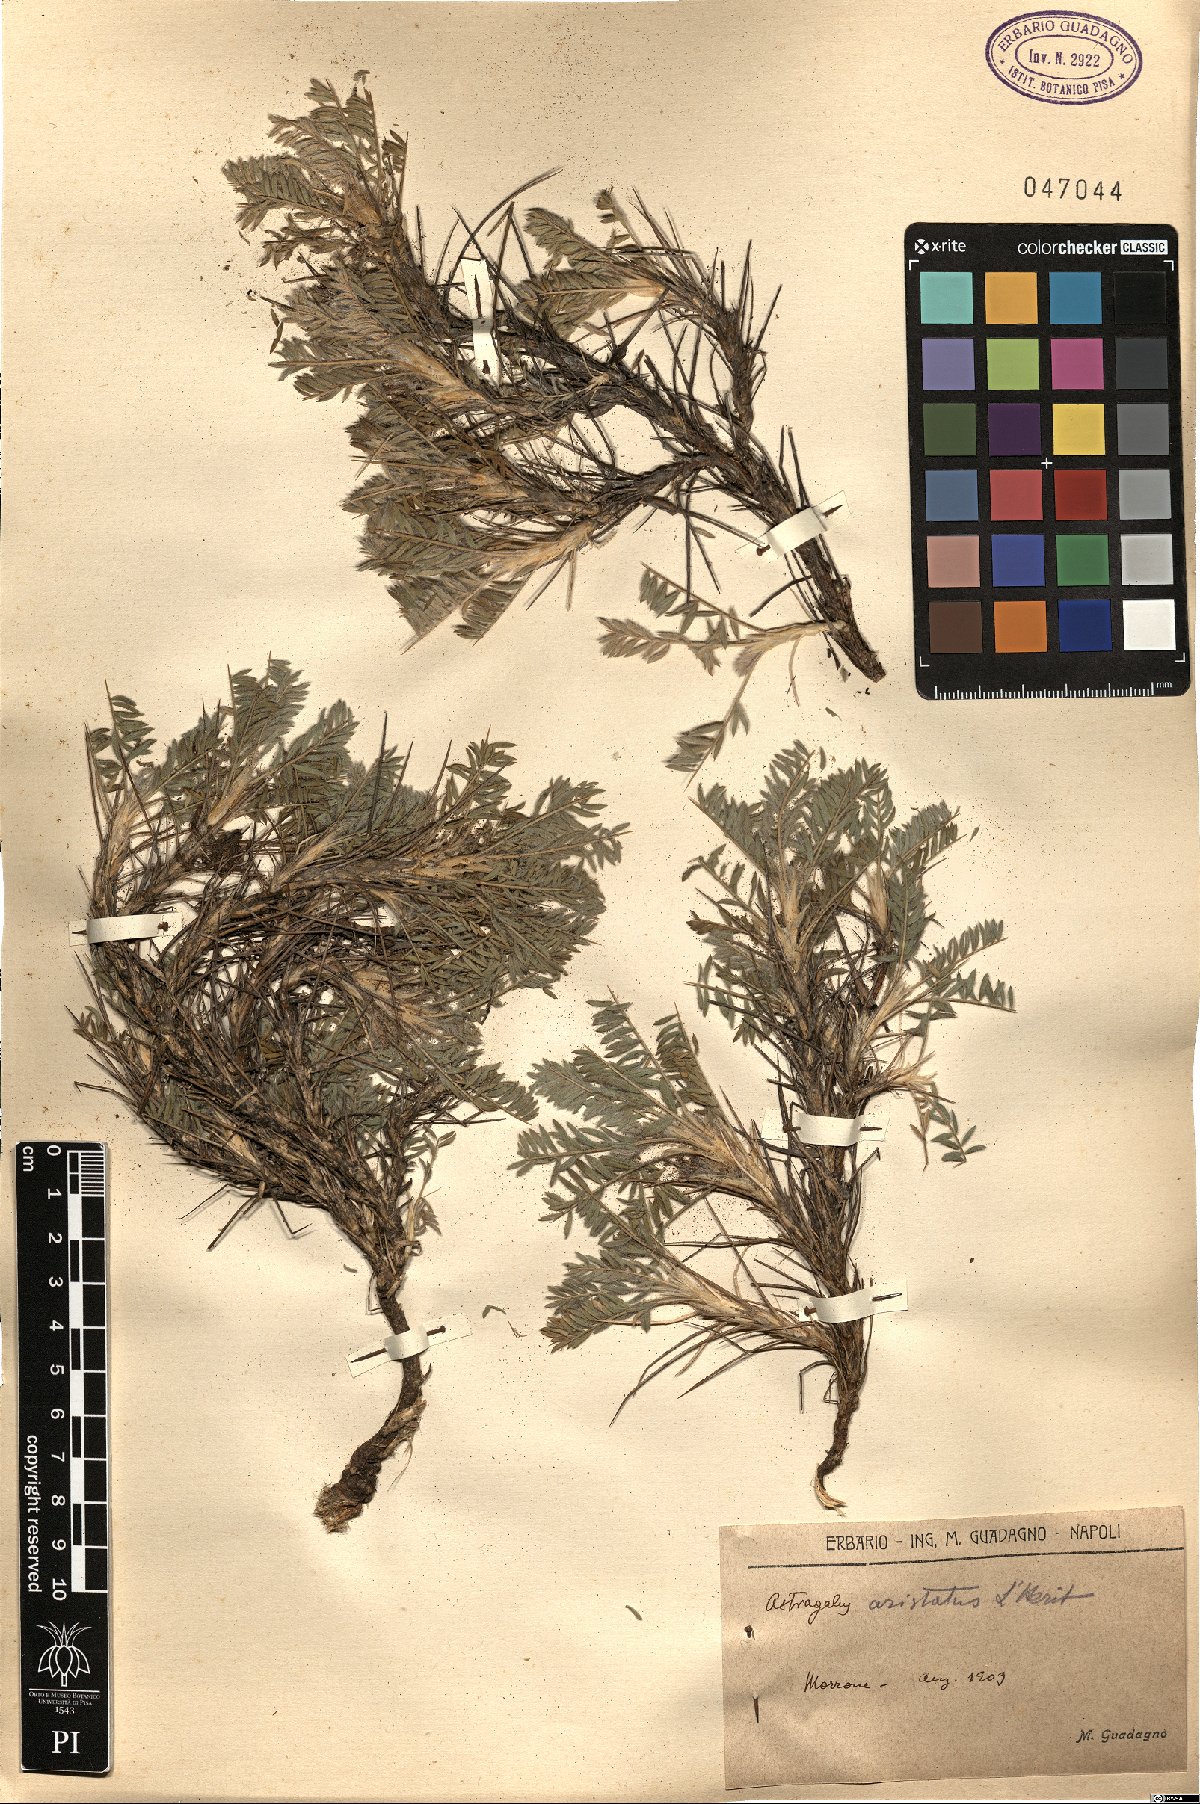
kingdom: Plantae
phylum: Tracheophyta
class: Magnoliopsida
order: Fabales
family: Fabaceae
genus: Astragalus
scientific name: Astragalus
